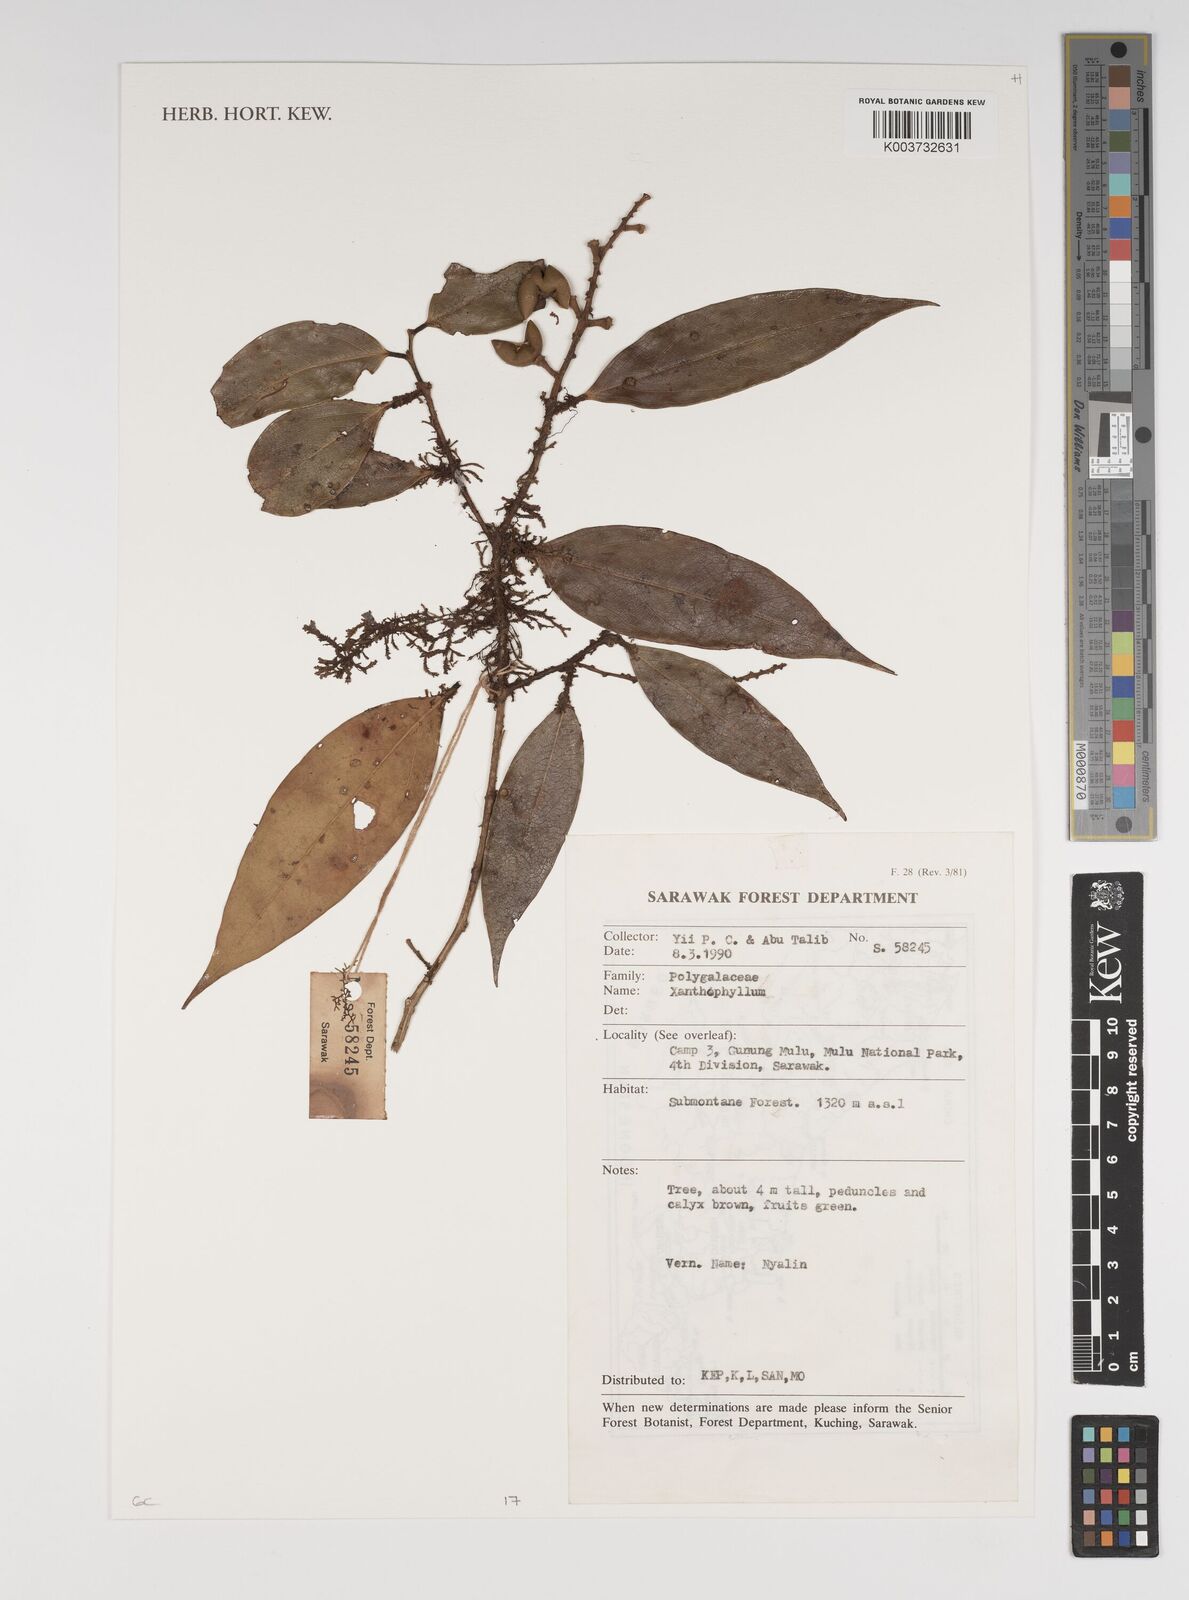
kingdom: Plantae
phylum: Tracheophyta
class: Magnoliopsida
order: Fabales
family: Polygalaceae
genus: Xanthophyllum
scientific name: Xanthophyllum
